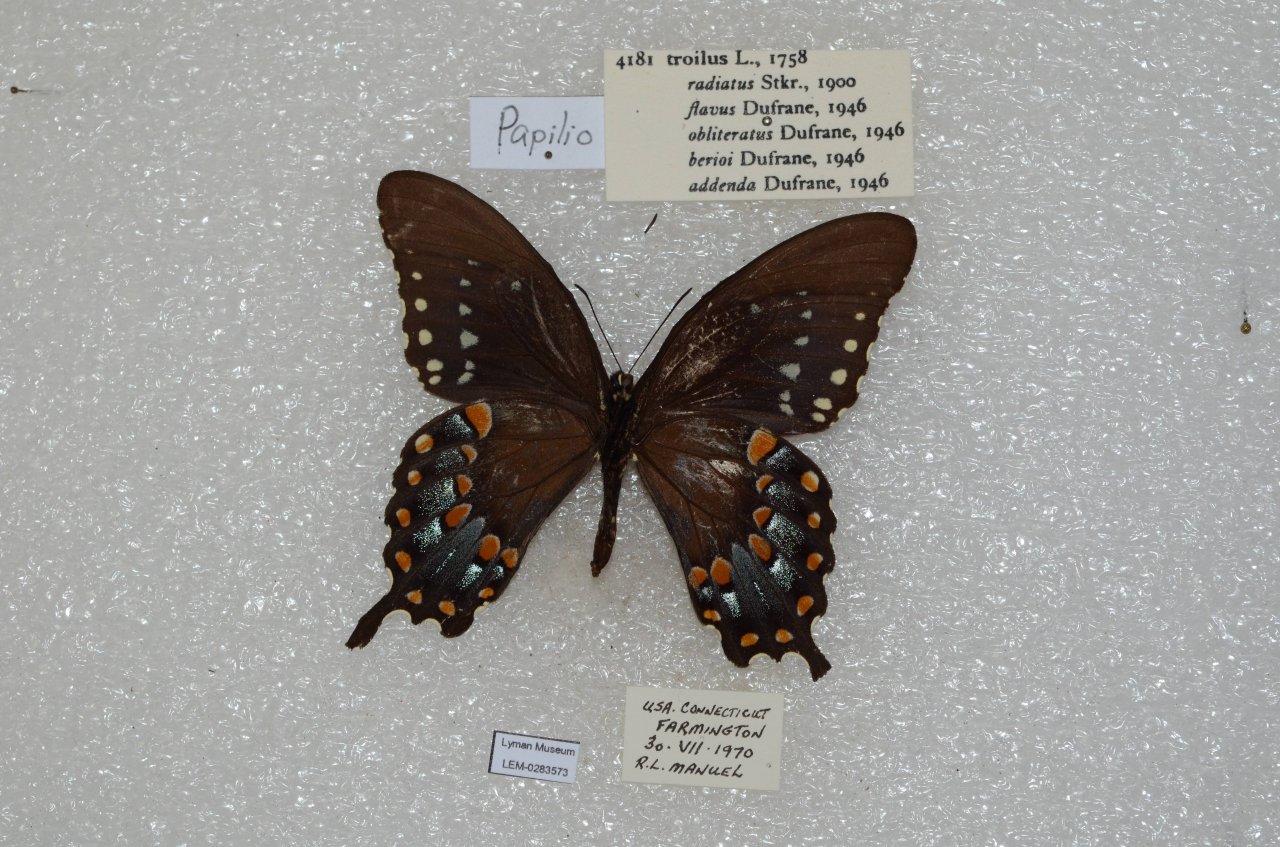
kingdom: Animalia
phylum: Arthropoda
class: Insecta
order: Lepidoptera
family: Papilionidae
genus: Pterourus
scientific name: Pterourus troilus
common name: Spicebush Swallowtail
